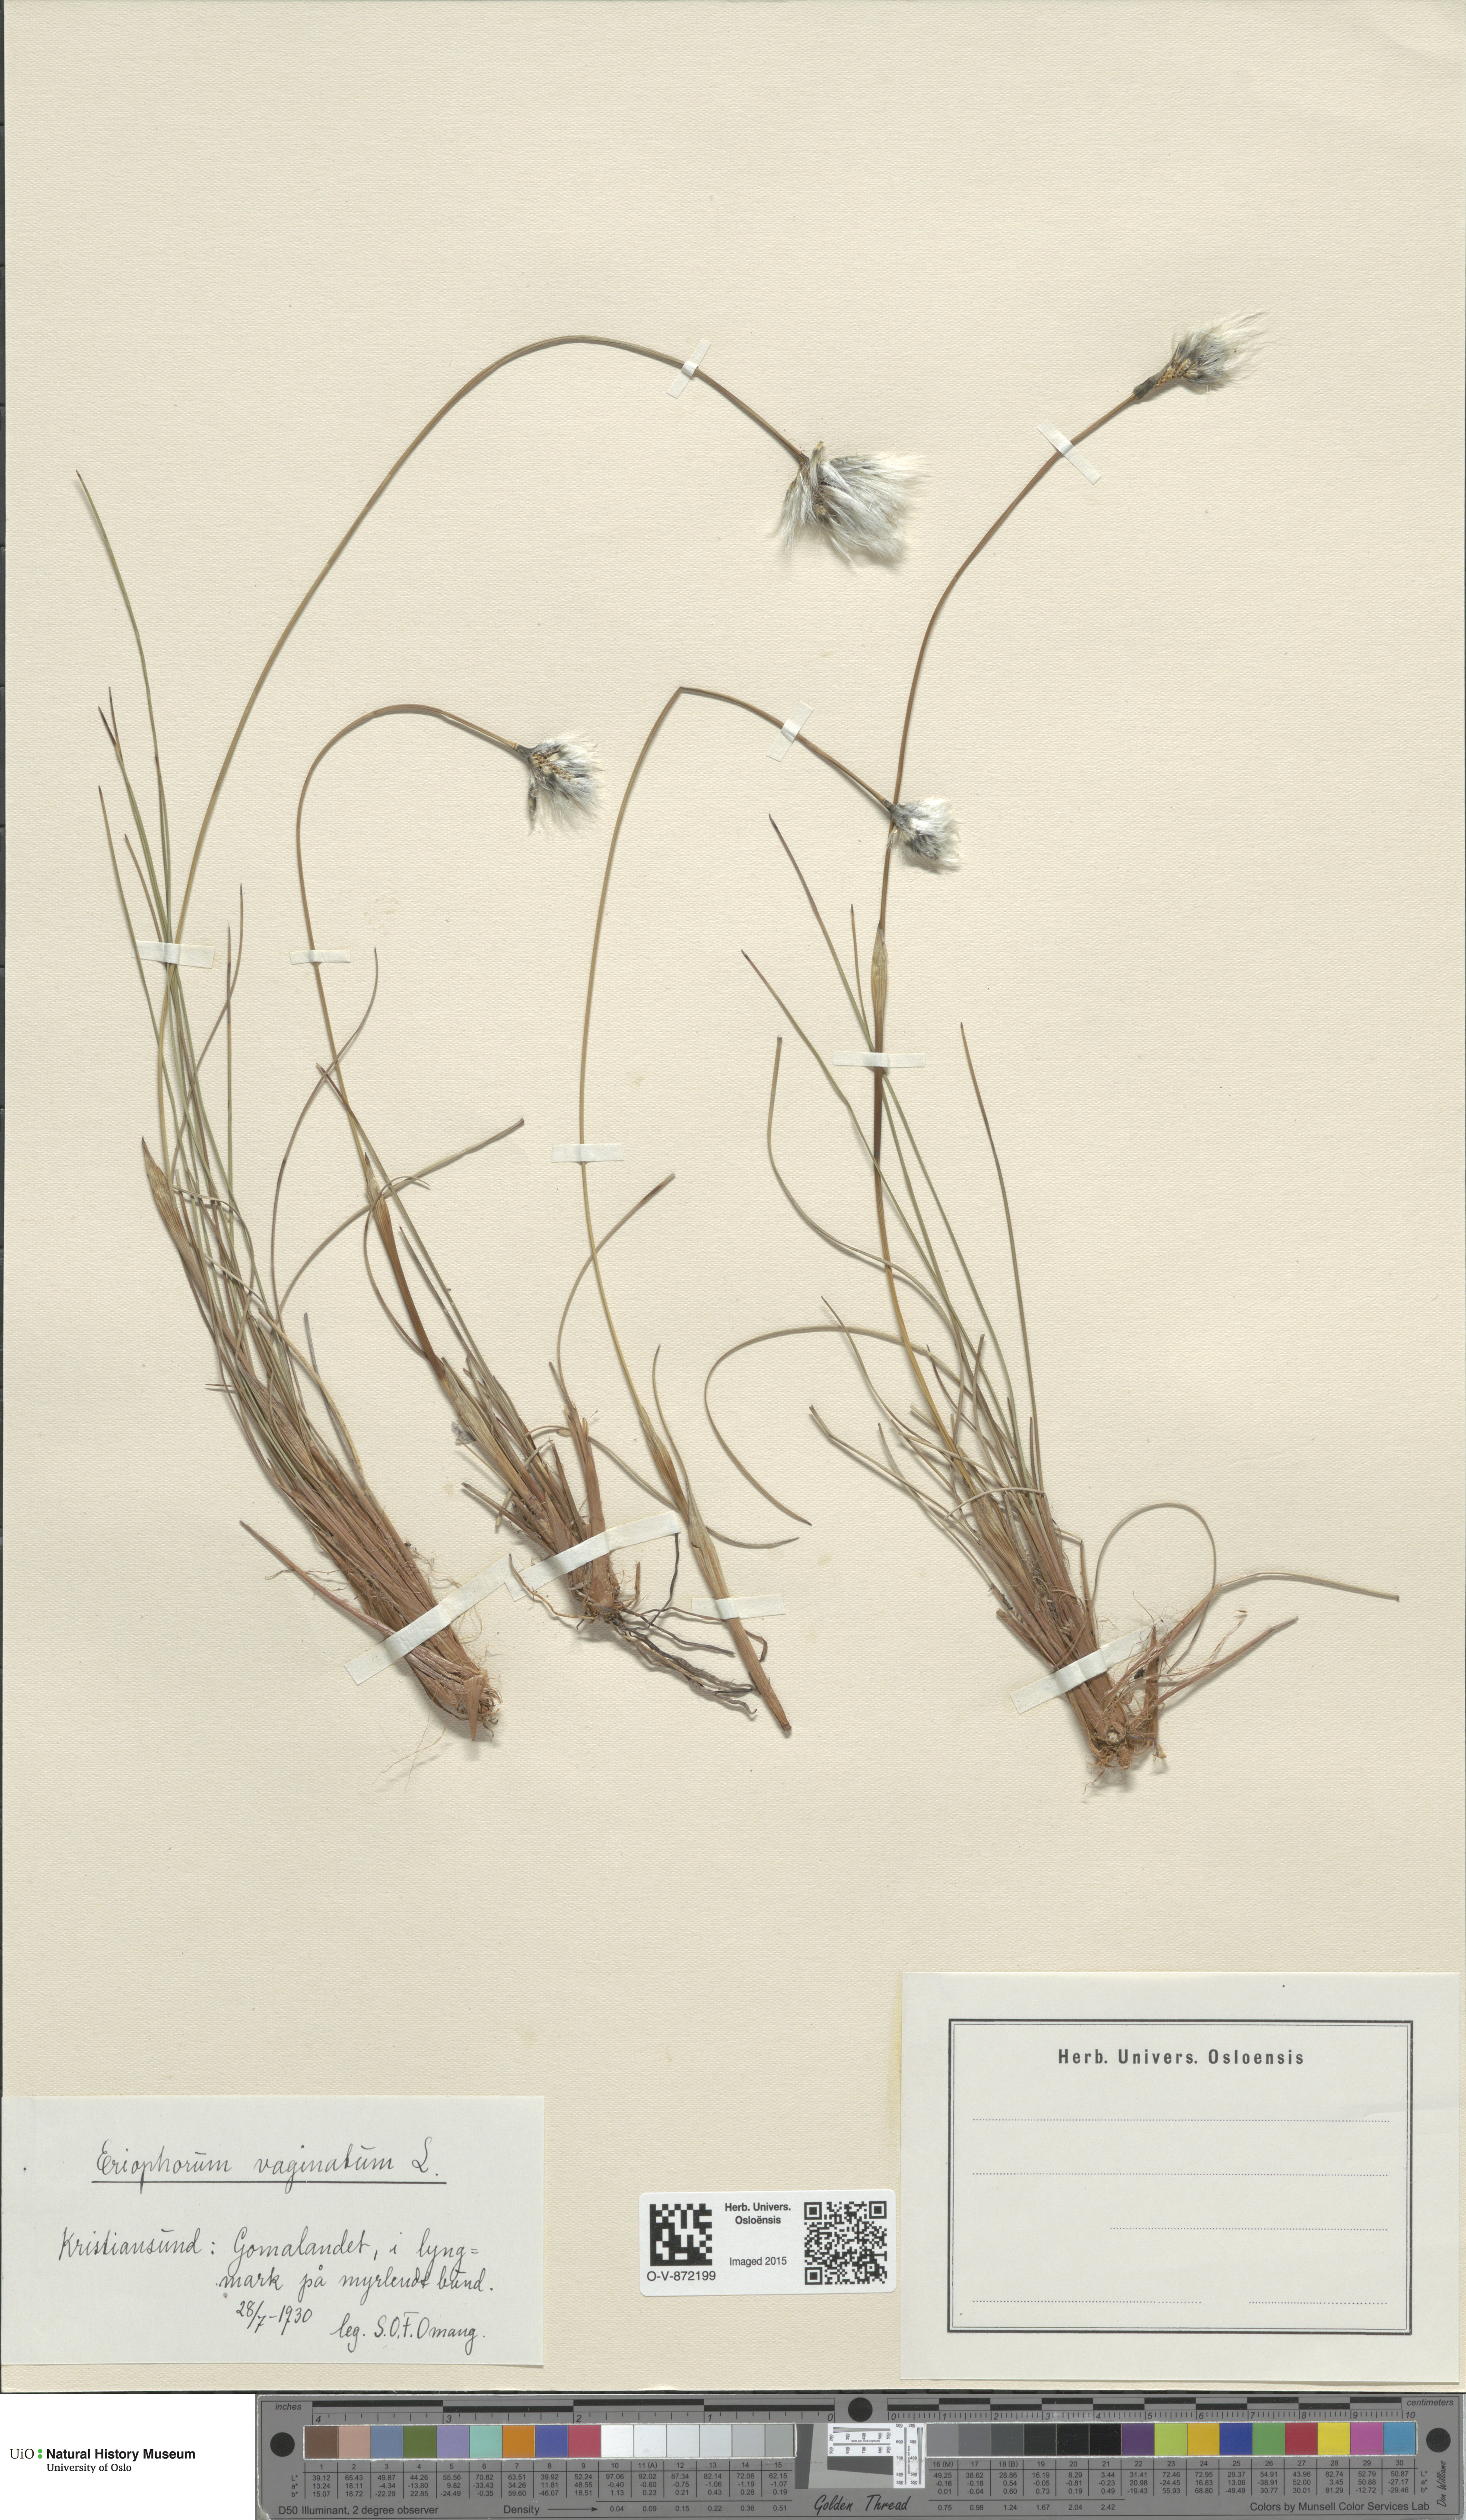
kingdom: Plantae
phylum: Tracheophyta
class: Liliopsida
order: Poales
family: Cyperaceae
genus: Eriophorum
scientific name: Eriophorum vaginatum
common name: Hare's-tail cottongrass
